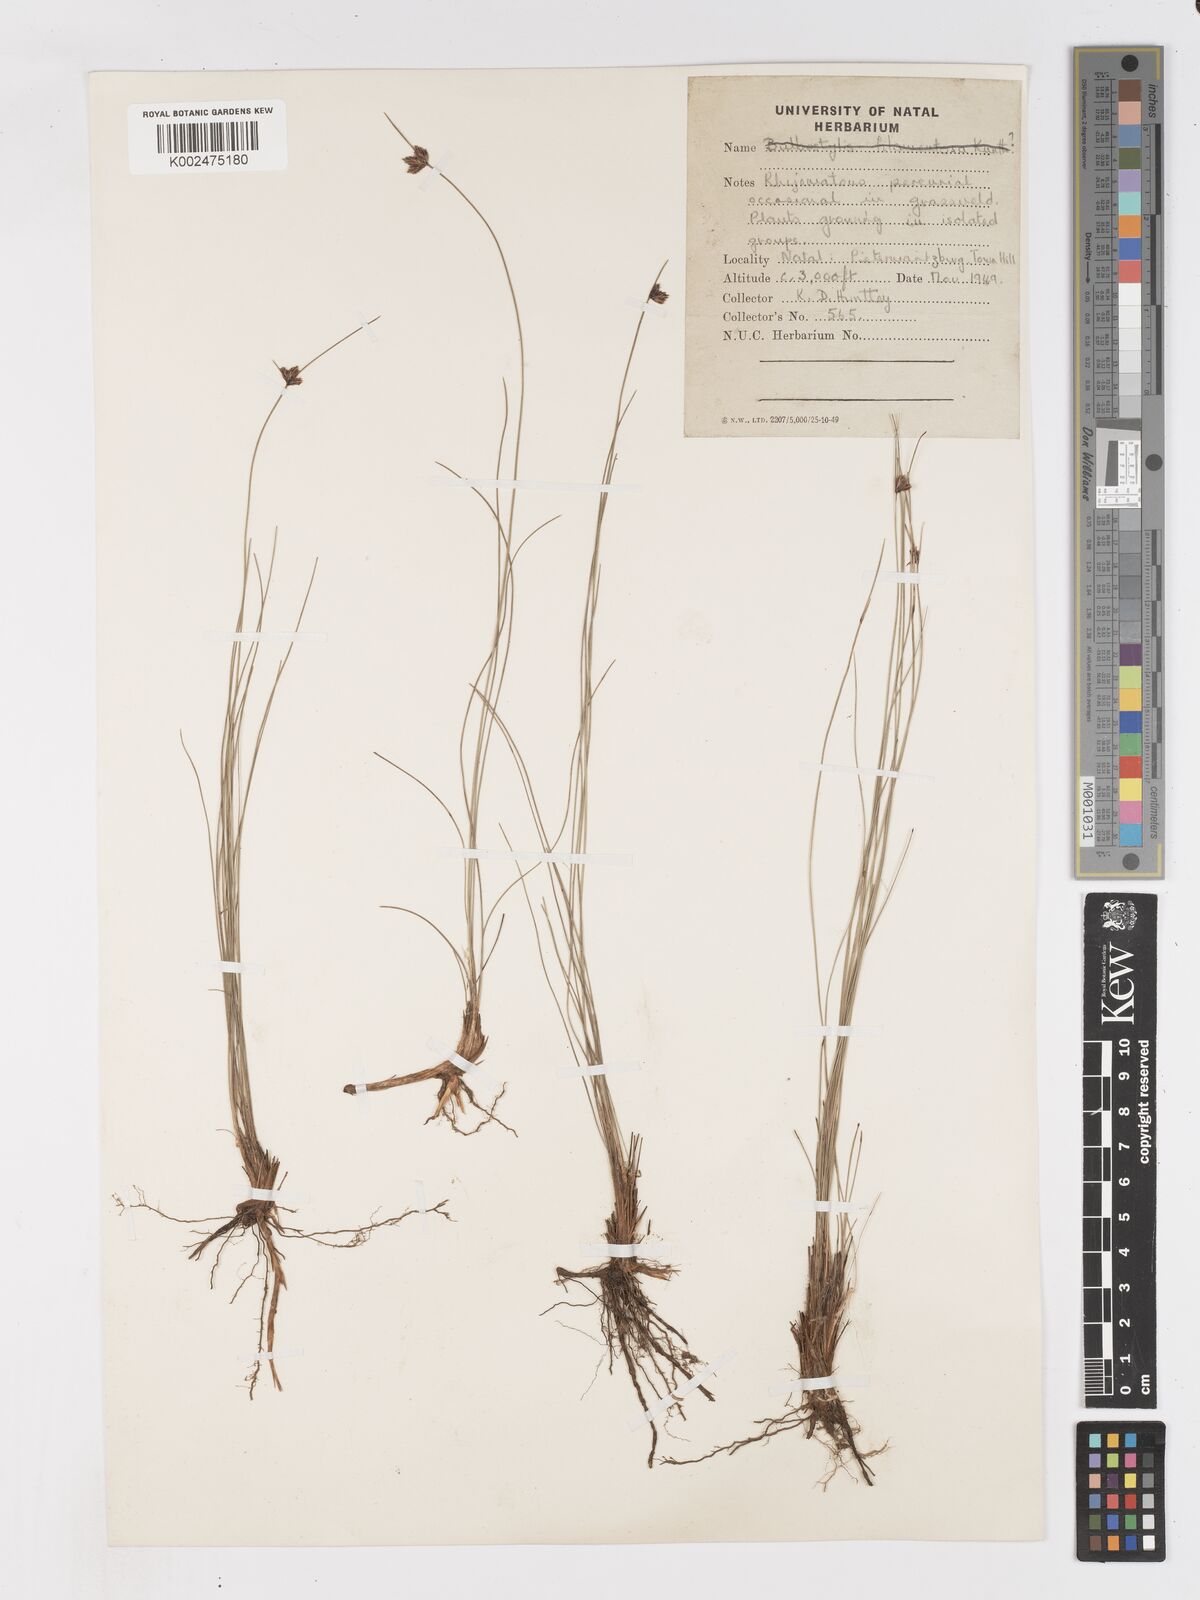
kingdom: Plantae
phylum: Tracheophyta
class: Liliopsida
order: Poales
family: Cyperaceae
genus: Ficinia
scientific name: Ficinia stolonifera
